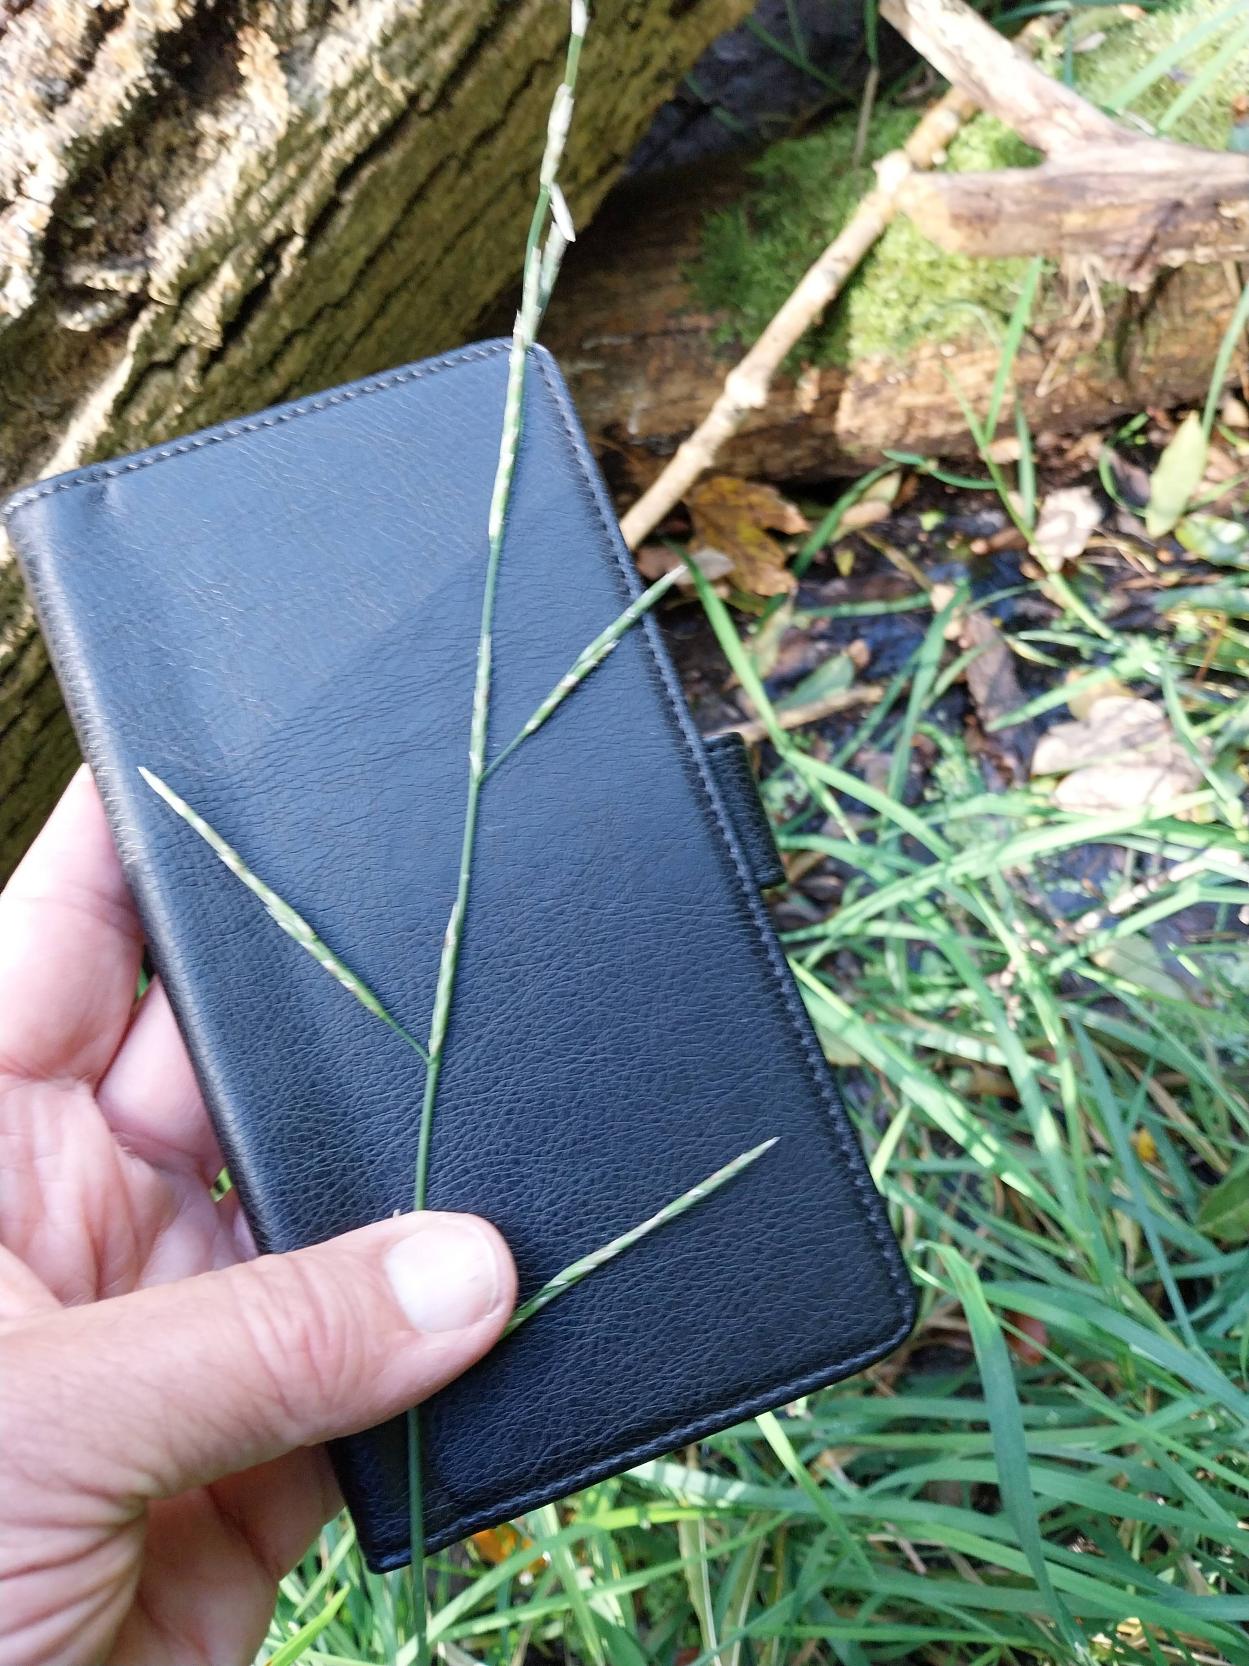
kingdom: Plantae
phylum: Tracheophyta
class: Liliopsida
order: Poales
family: Poaceae
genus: Glyceria
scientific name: Glyceria fluitans
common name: Manna-sødgræs
